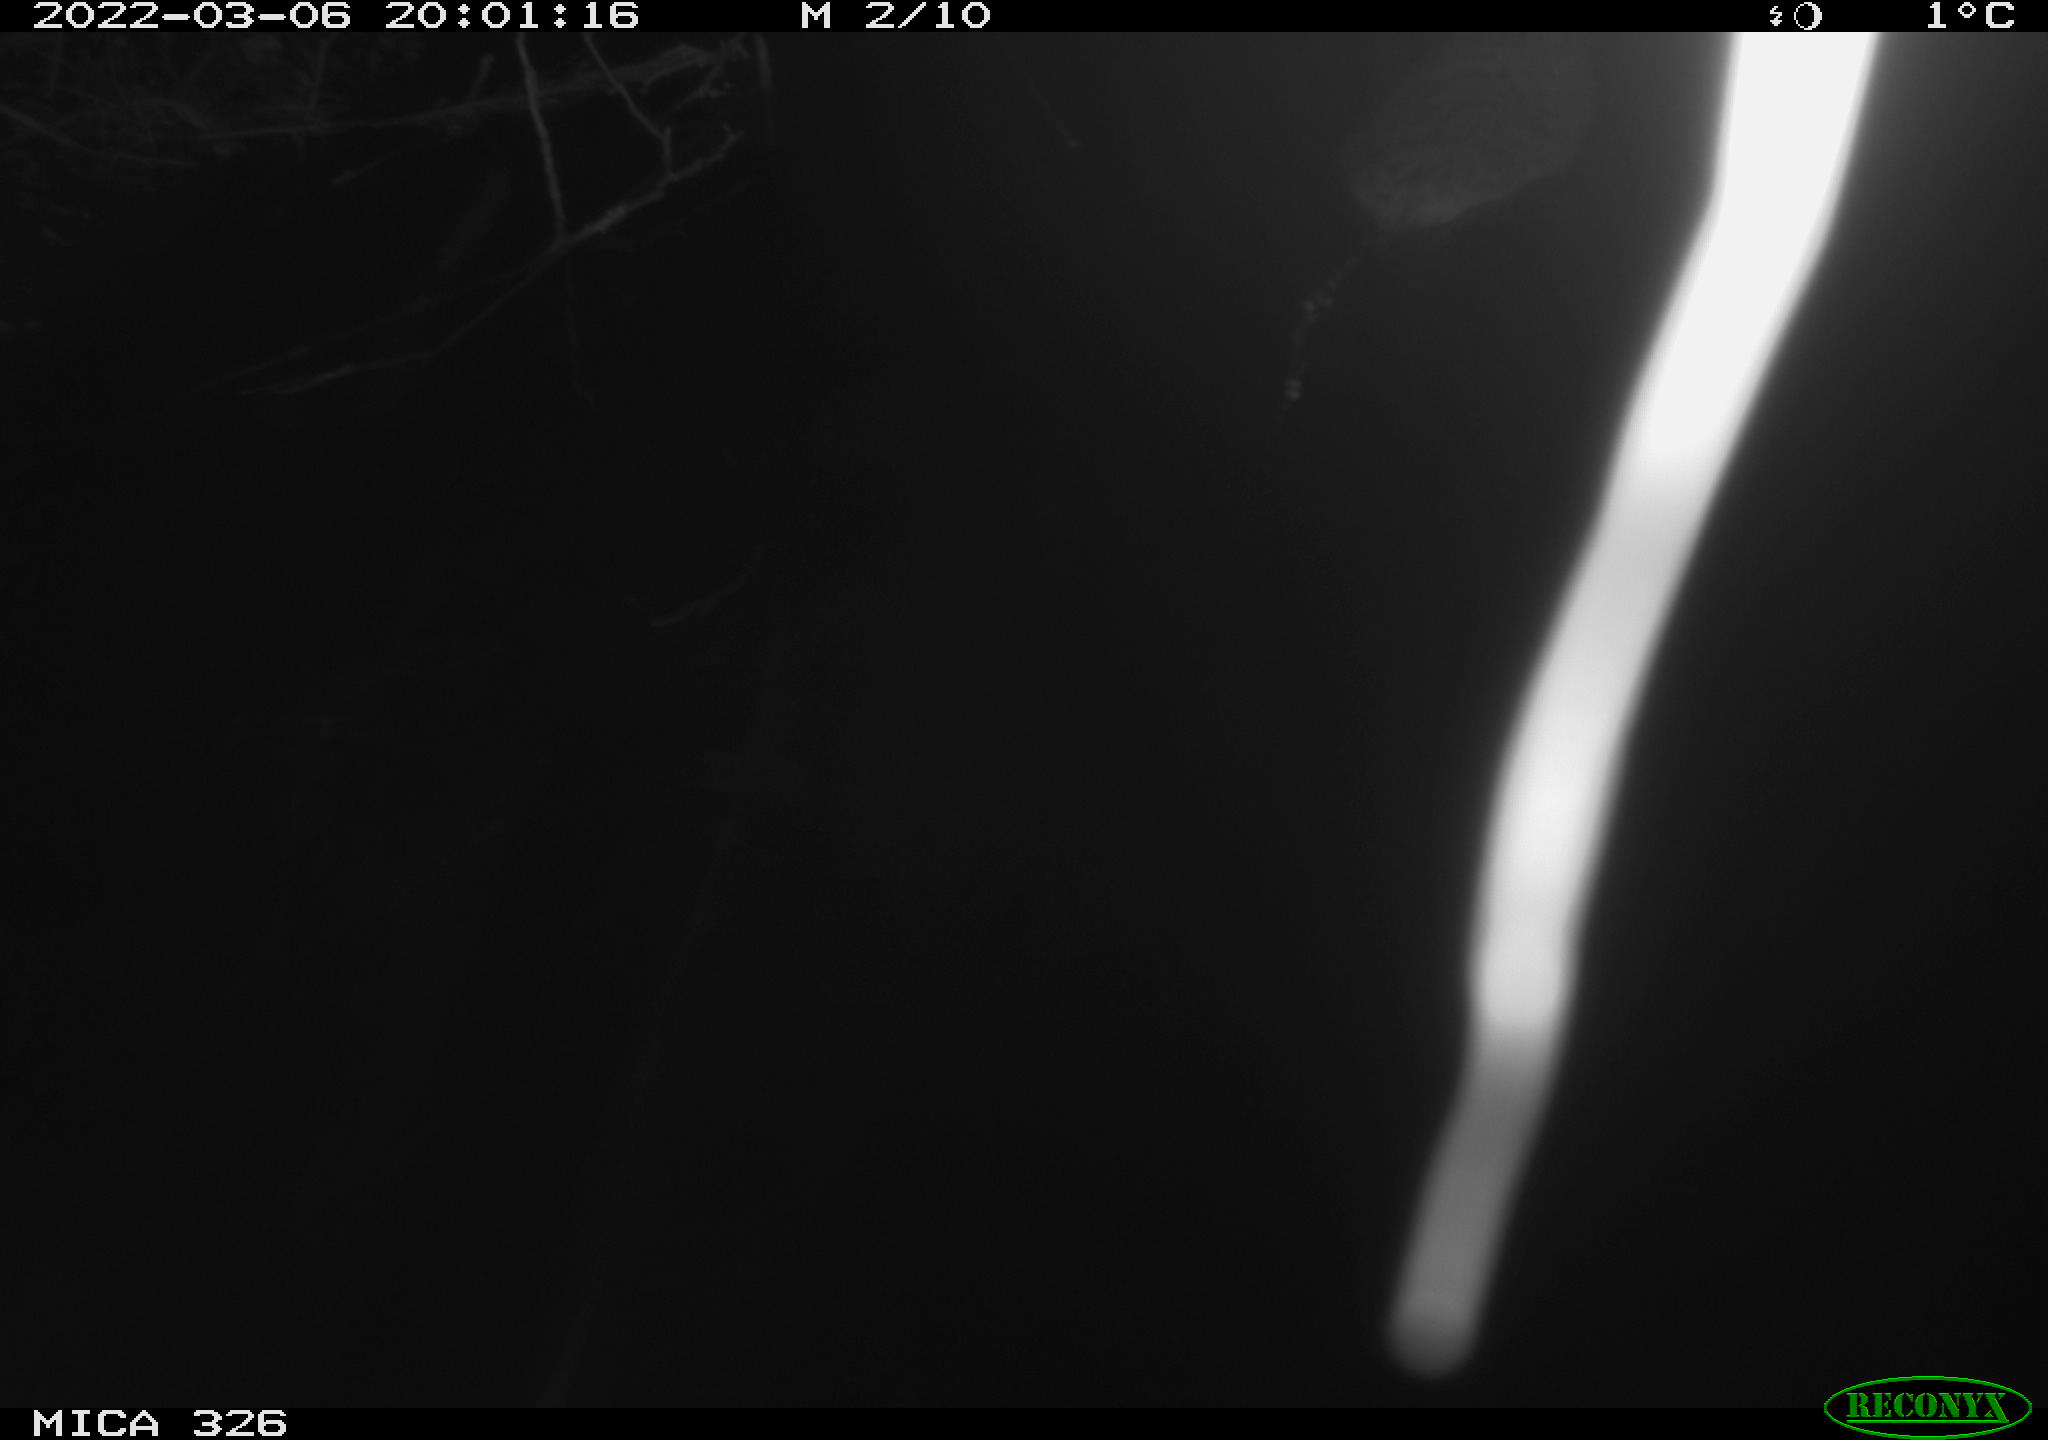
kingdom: Animalia
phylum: Chordata
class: Mammalia
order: Rodentia
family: Cricetidae
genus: Ondatra
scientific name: Ondatra zibethicus
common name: Muskrat
